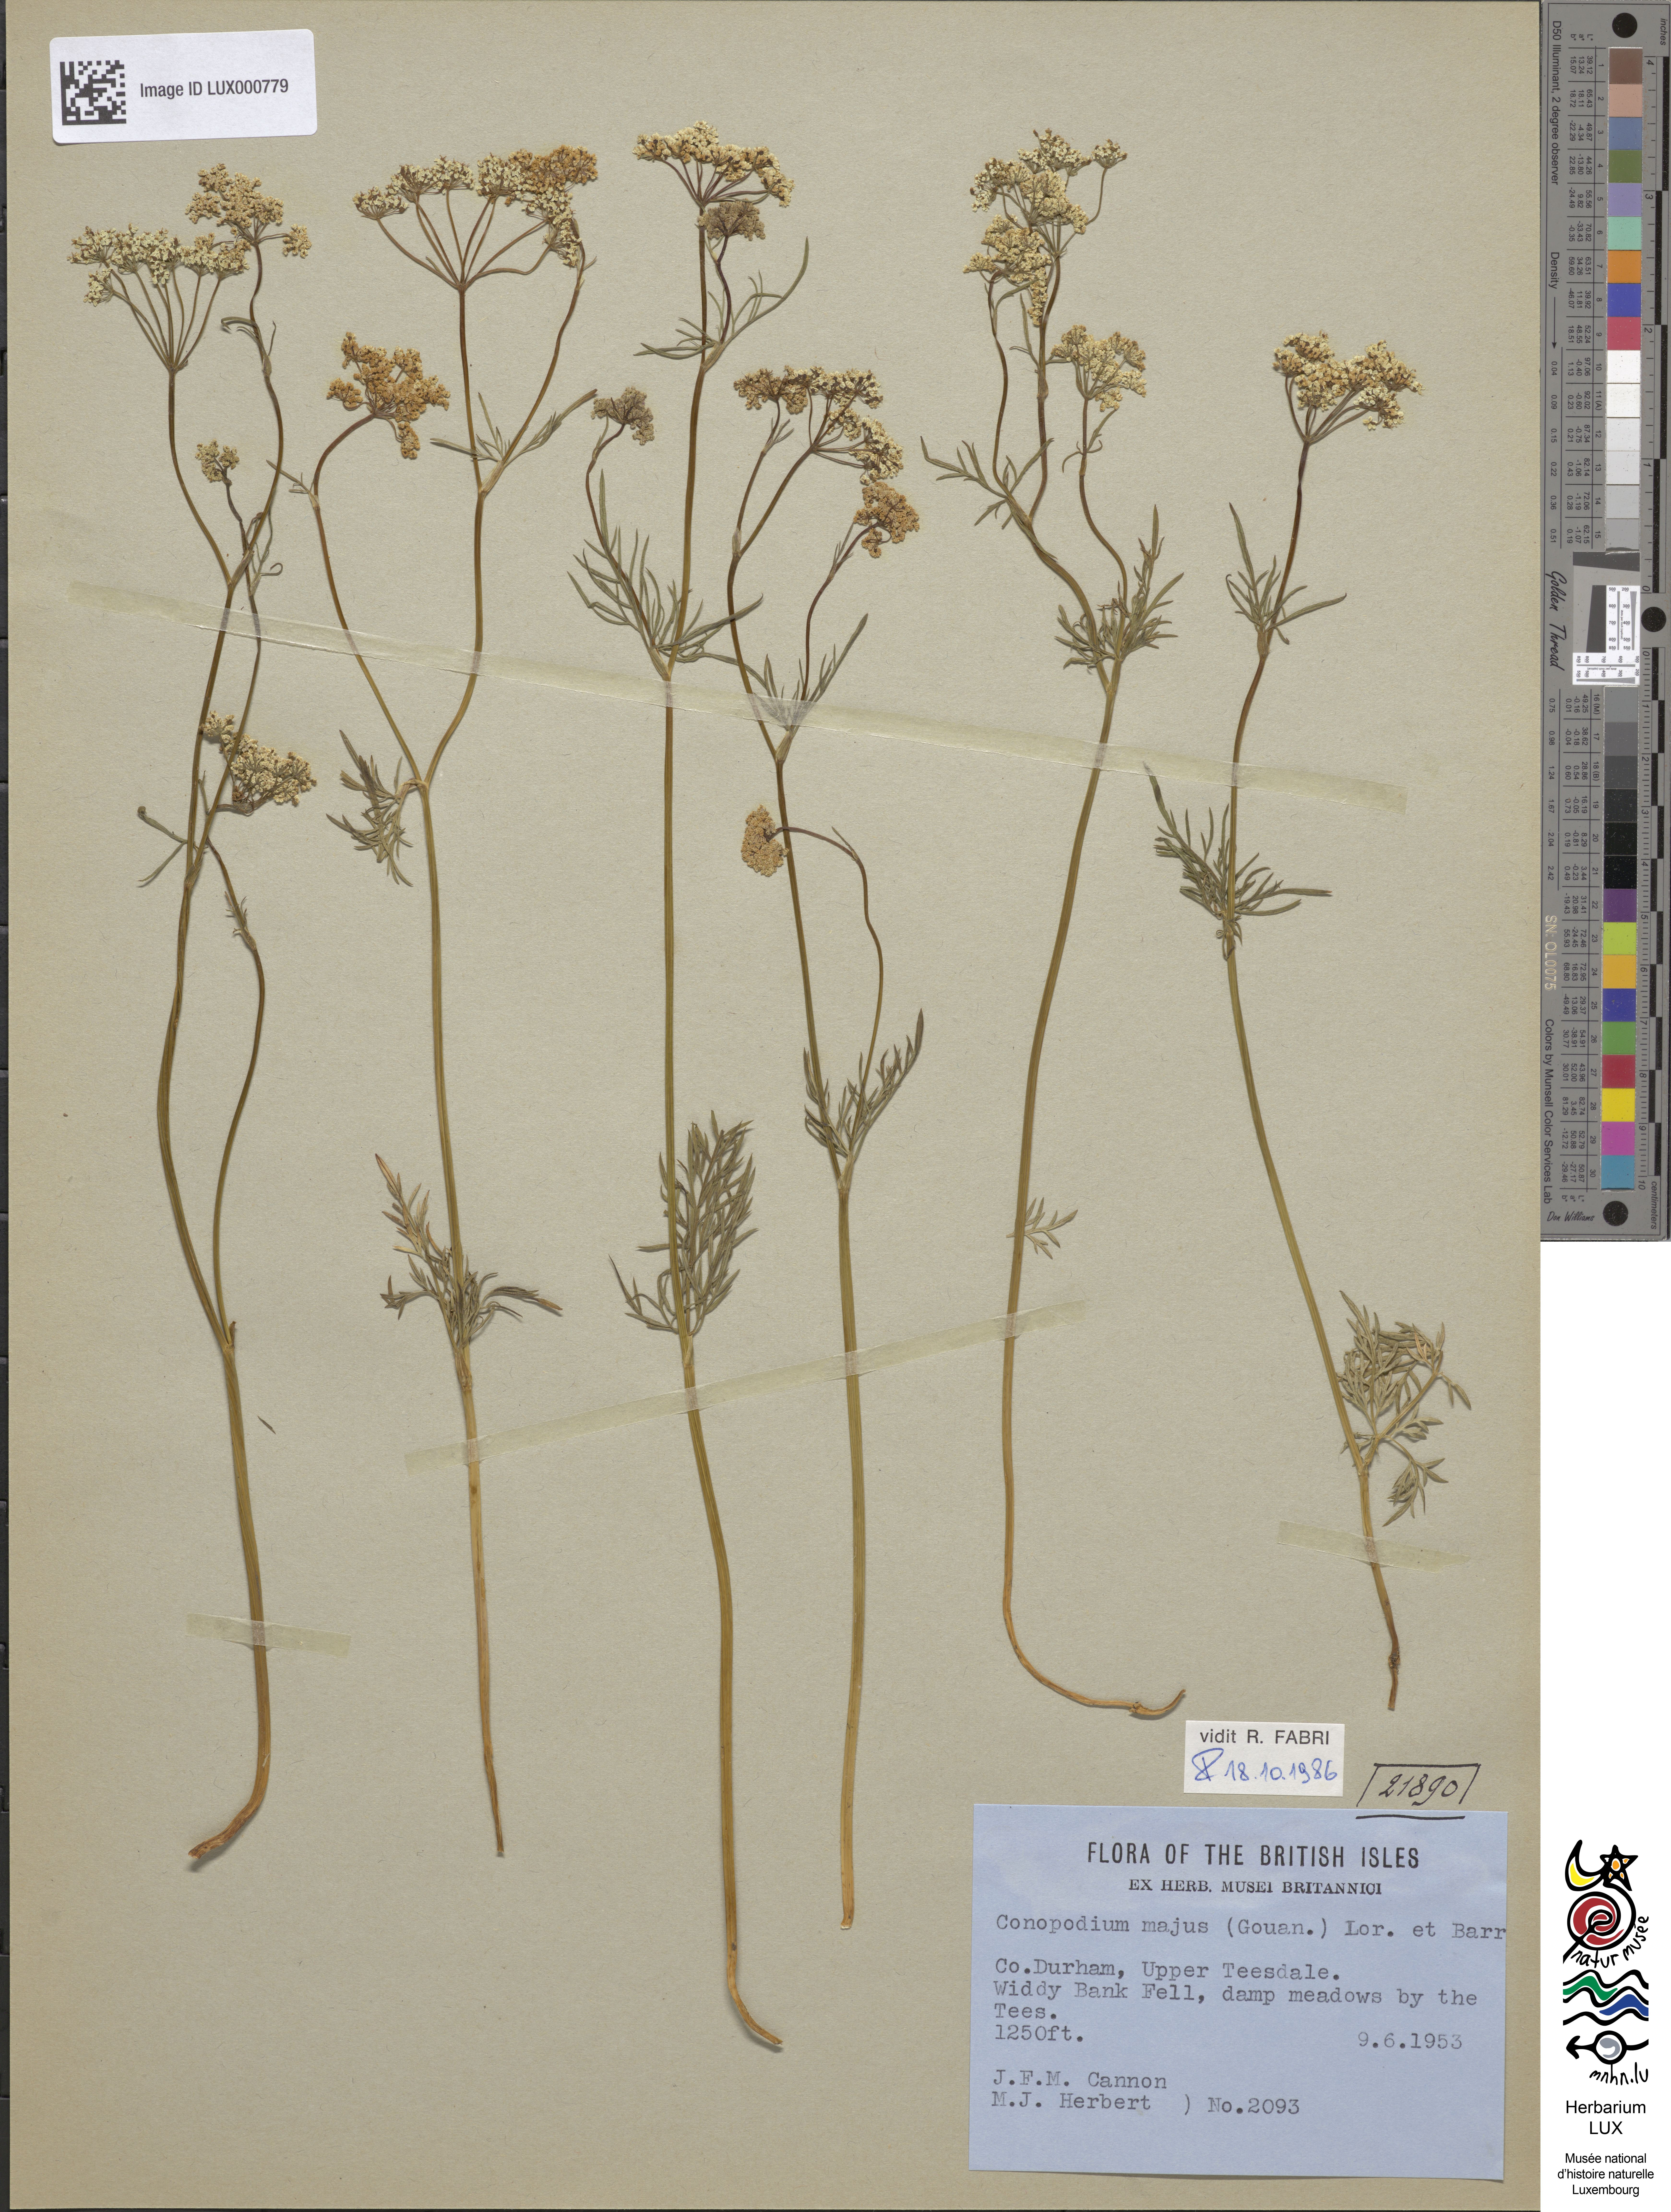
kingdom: Plantae
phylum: Tracheophyta
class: Magnoliopsida
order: Apiales
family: Apiaceae
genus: Conopodium
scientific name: Conopodium majus
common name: Pignut
